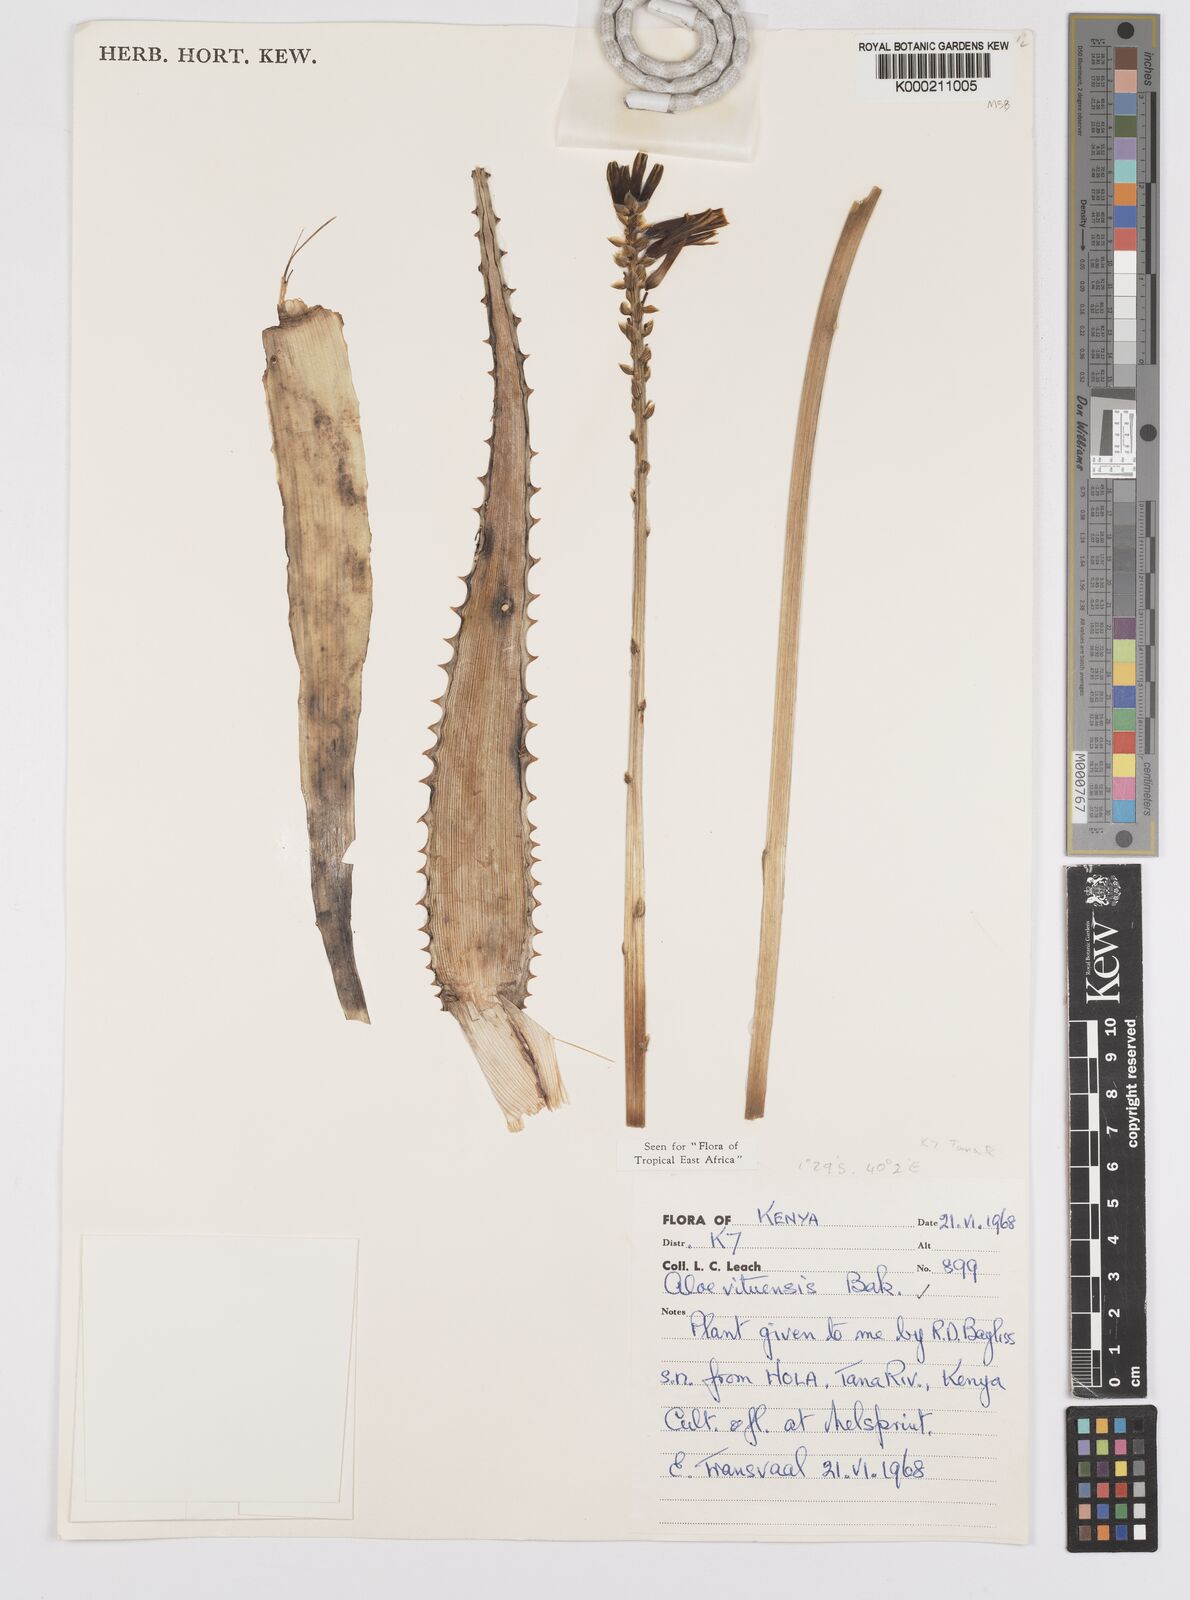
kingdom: Plantae
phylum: Tracheophyta
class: Liliopsida
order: Asparagales
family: Asphodelaceae
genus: Aloe
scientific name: Aloe vituensis
